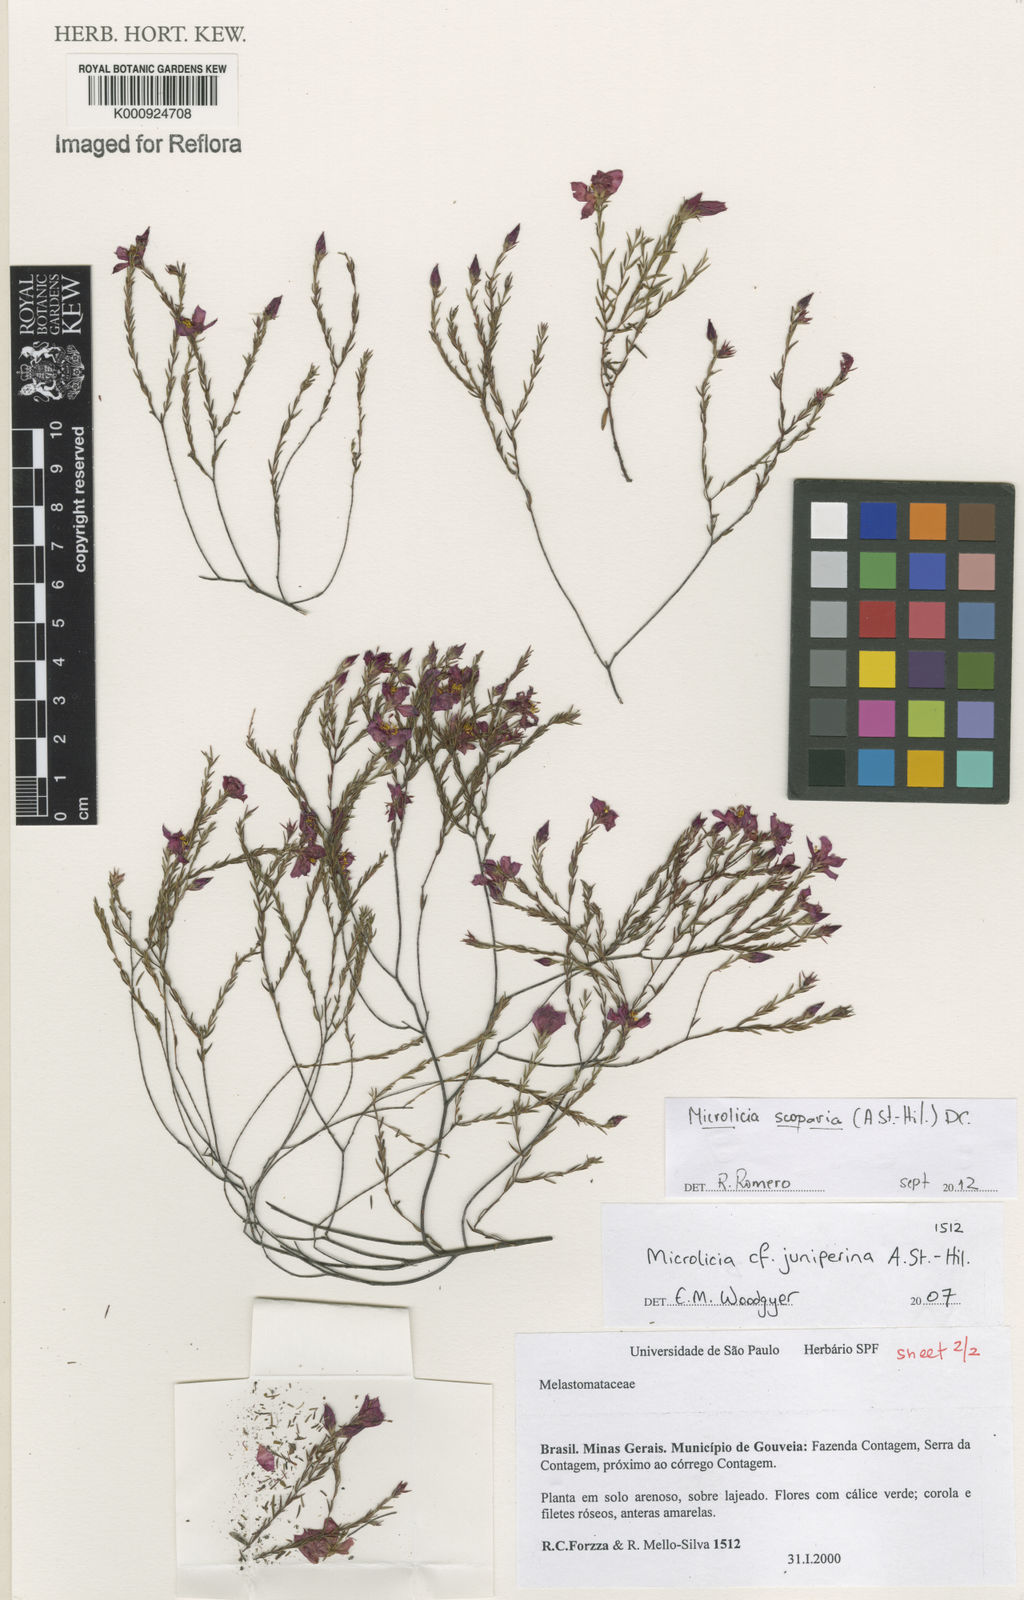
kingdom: Plantae
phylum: Tracheophyta
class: Magnoliopsida
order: Myrtales
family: Melastomataceae
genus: Microlicia
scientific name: Microlicia scoparia
